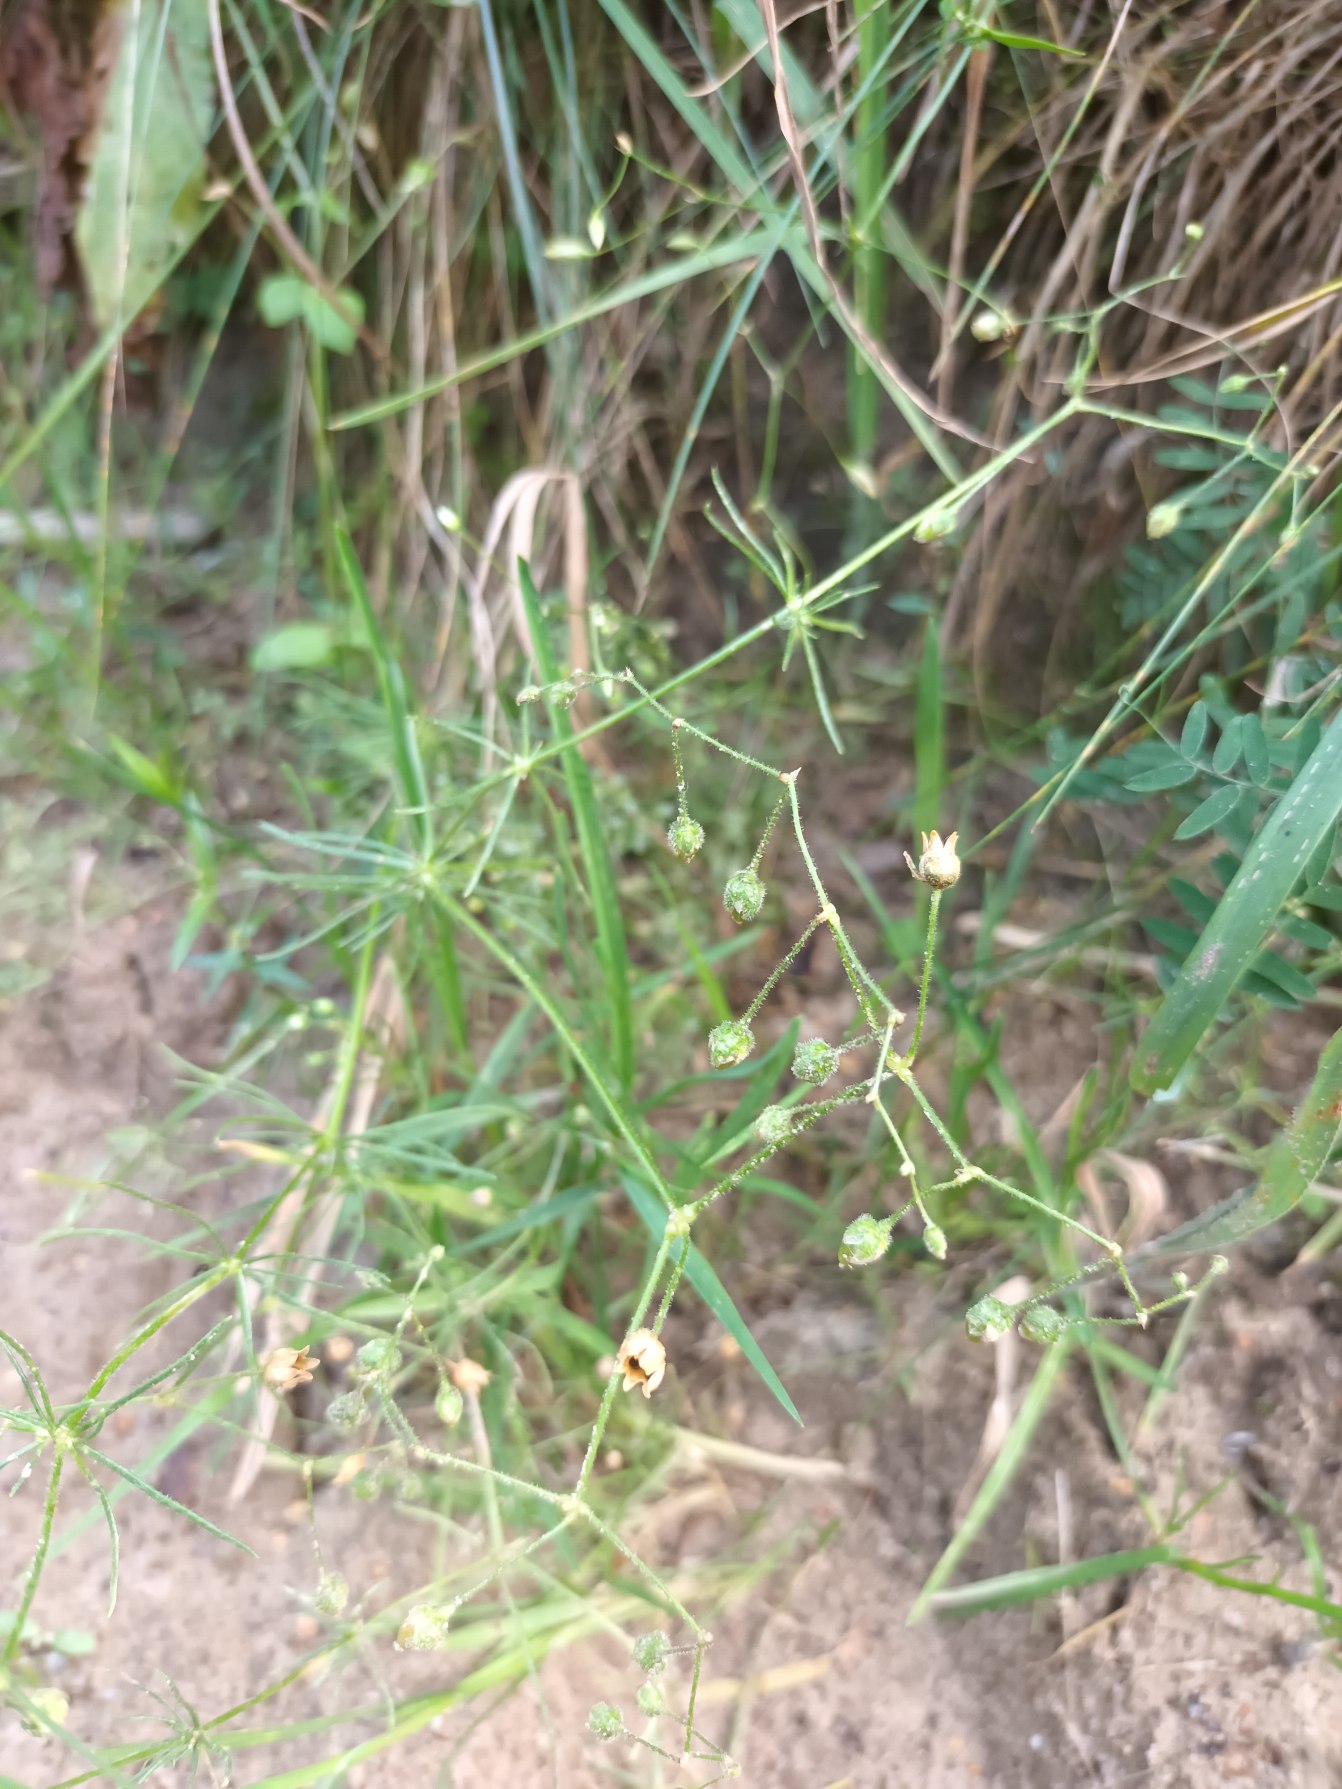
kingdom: Plantae
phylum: Tracheophyta
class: Magnoliopsida
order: Caryophyllales
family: Caryophyllaceae
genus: Spergula
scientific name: Spergula arvensis
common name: Foder-spergel
